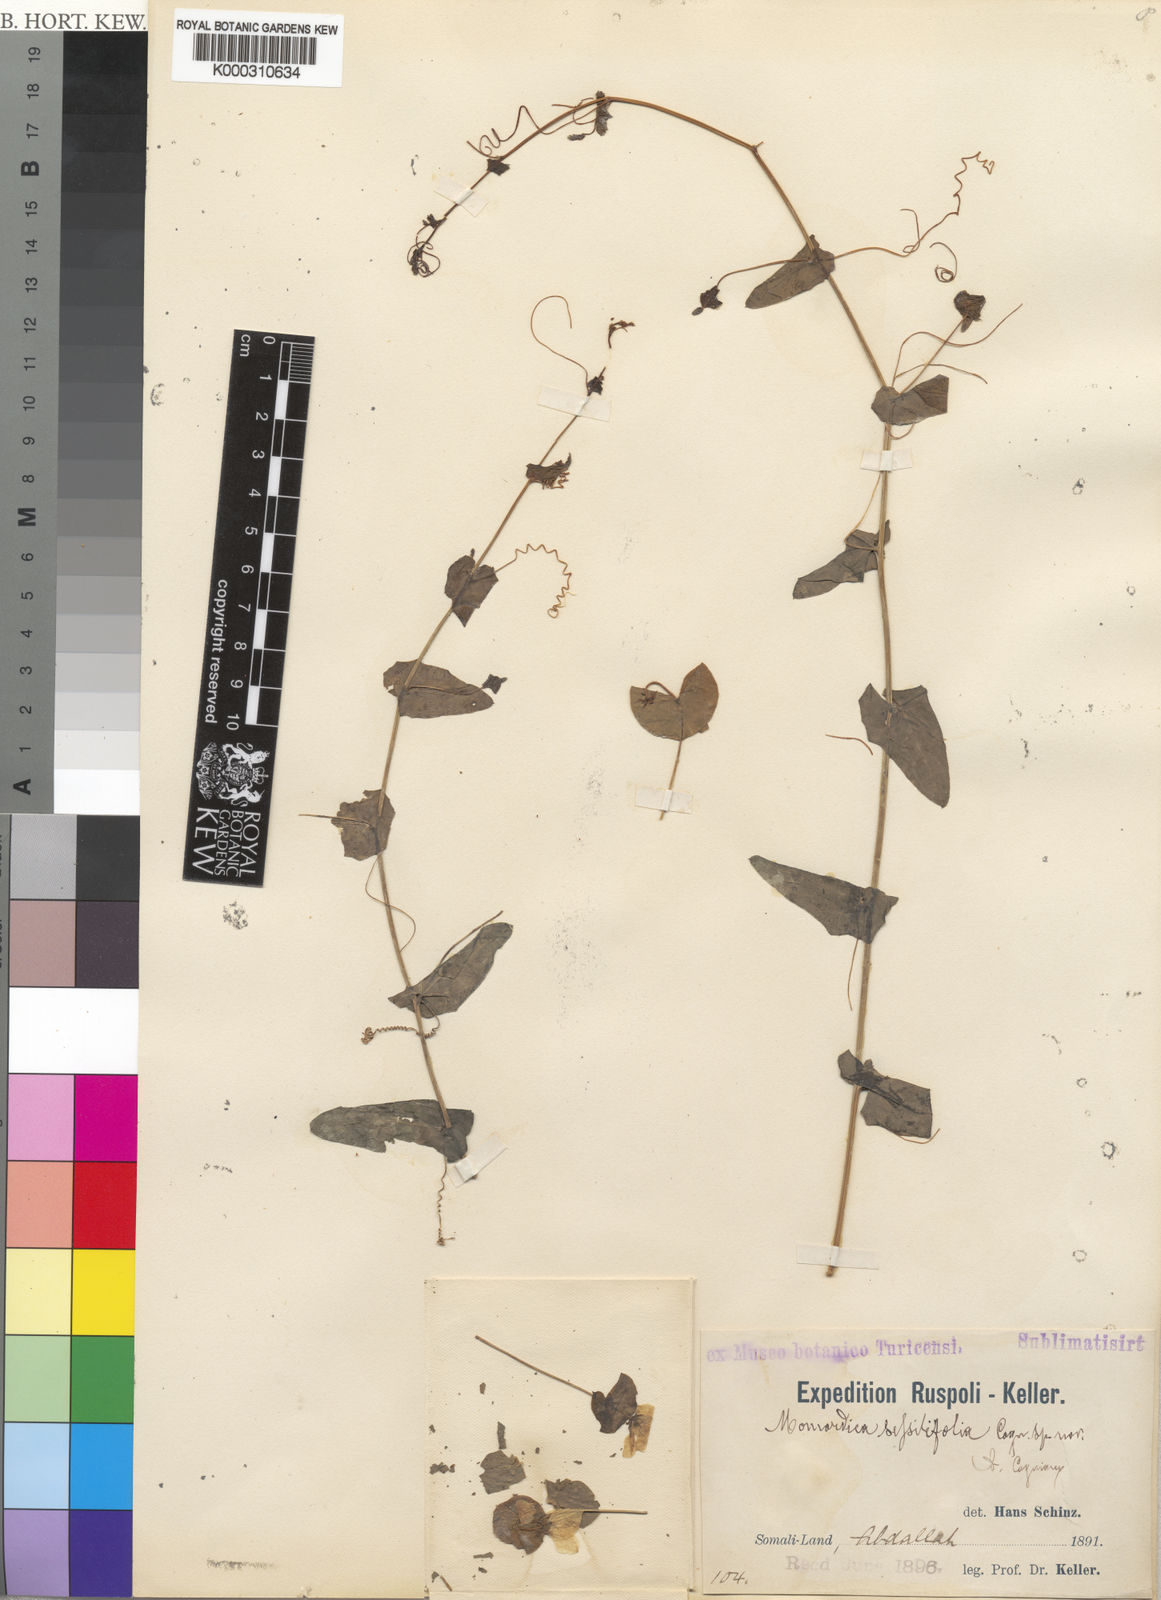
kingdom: Plantae
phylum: Tracheophyta
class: Magnoliopsida
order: Cucurbitales
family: Cucurbitaceae
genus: Momordica
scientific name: Momordica sessilifolia
